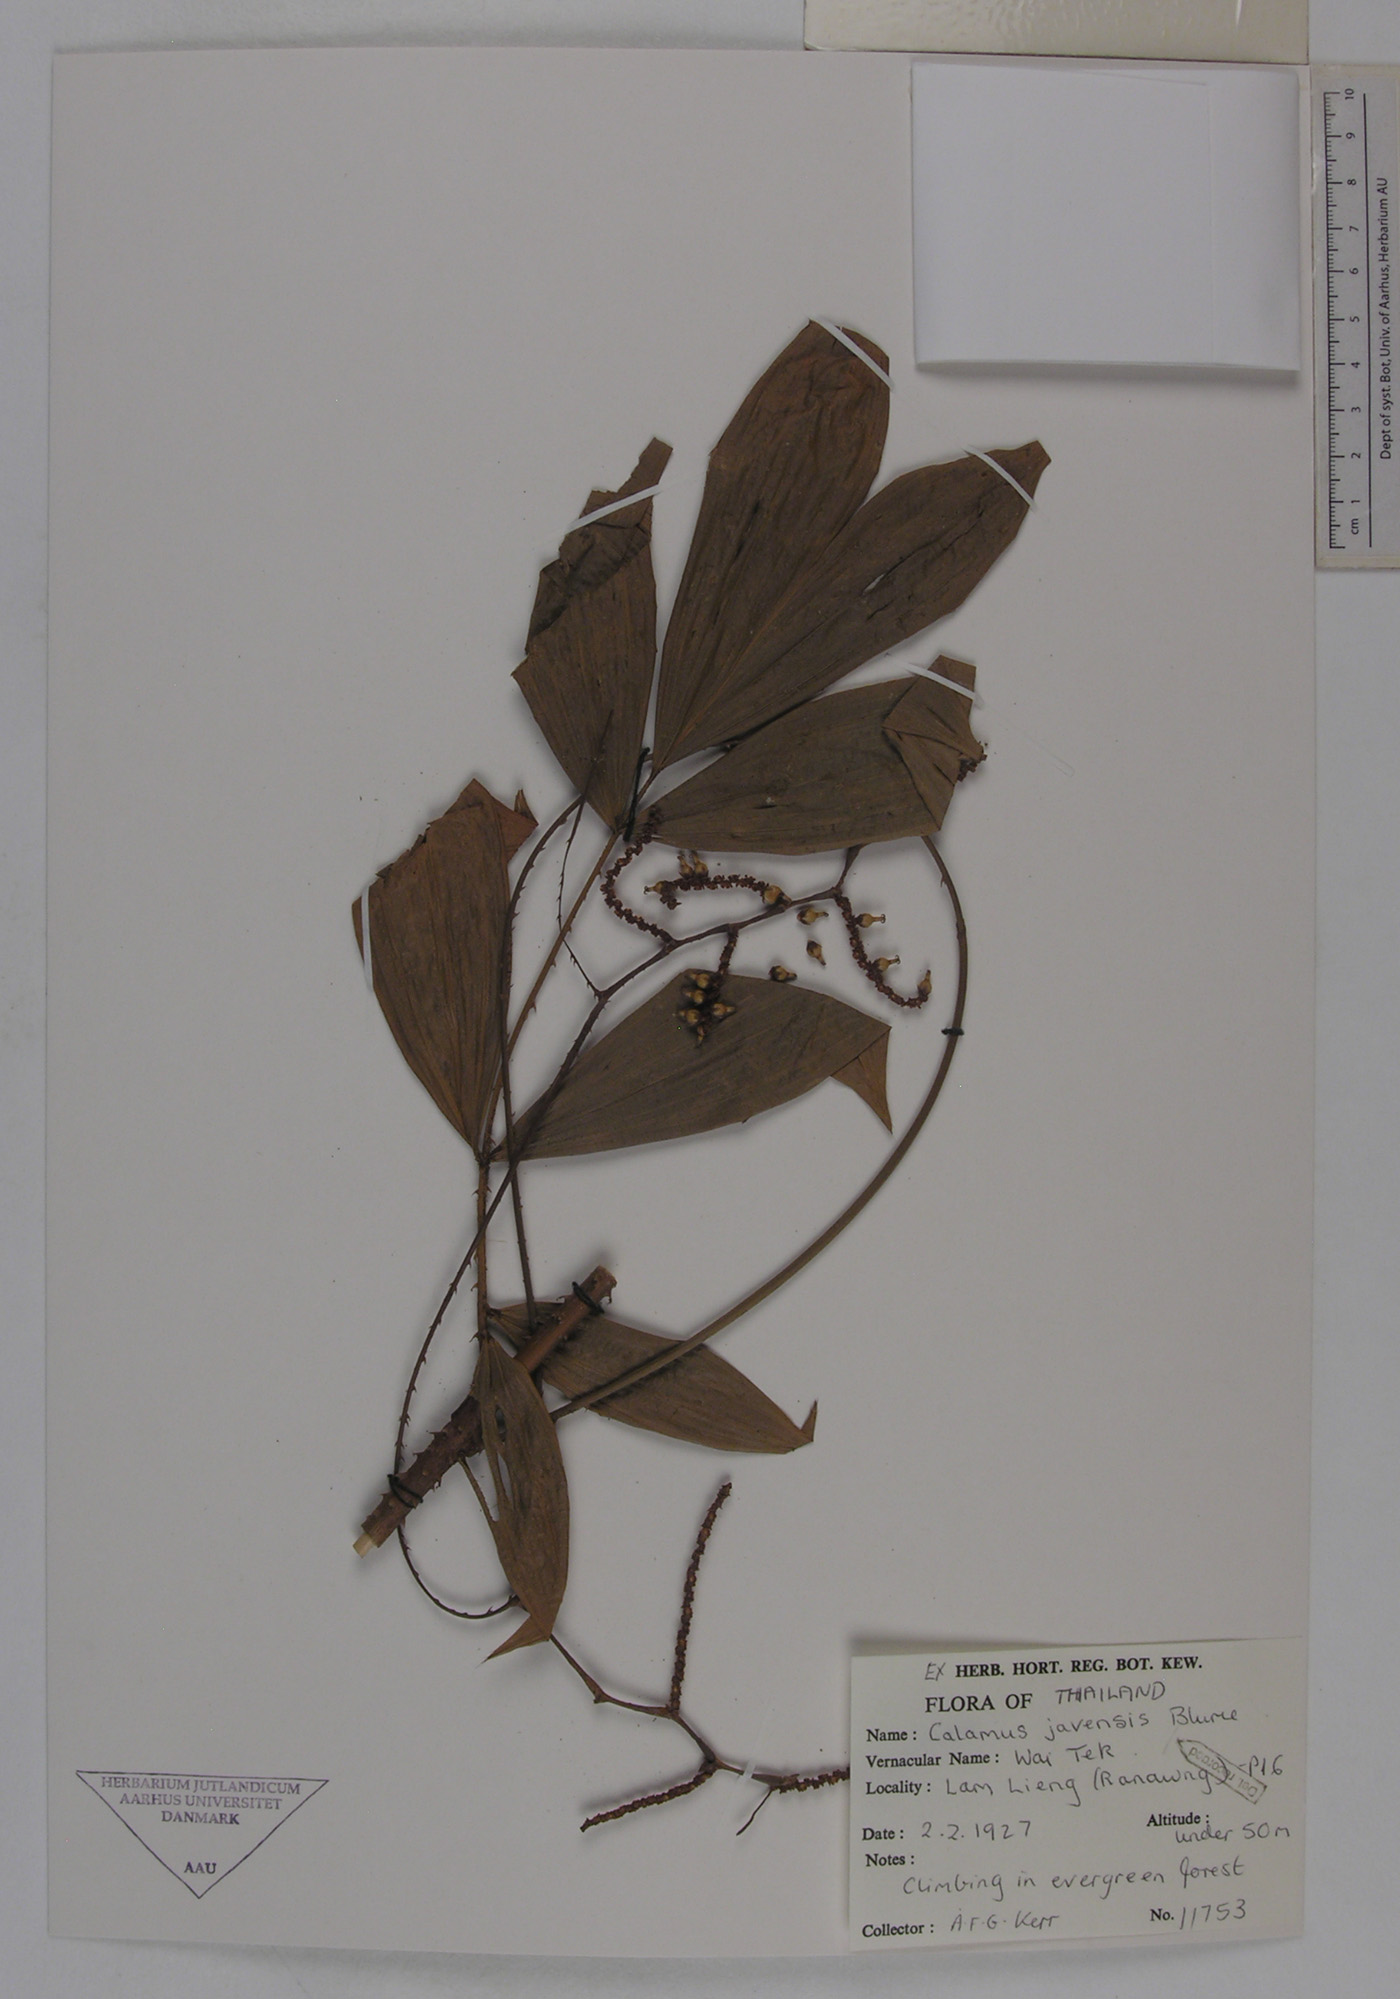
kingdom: Plantae
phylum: Tracheophyta
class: Liliopsida
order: Arecales
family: Arecaceae
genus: Calamus
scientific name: Calamus javensis
